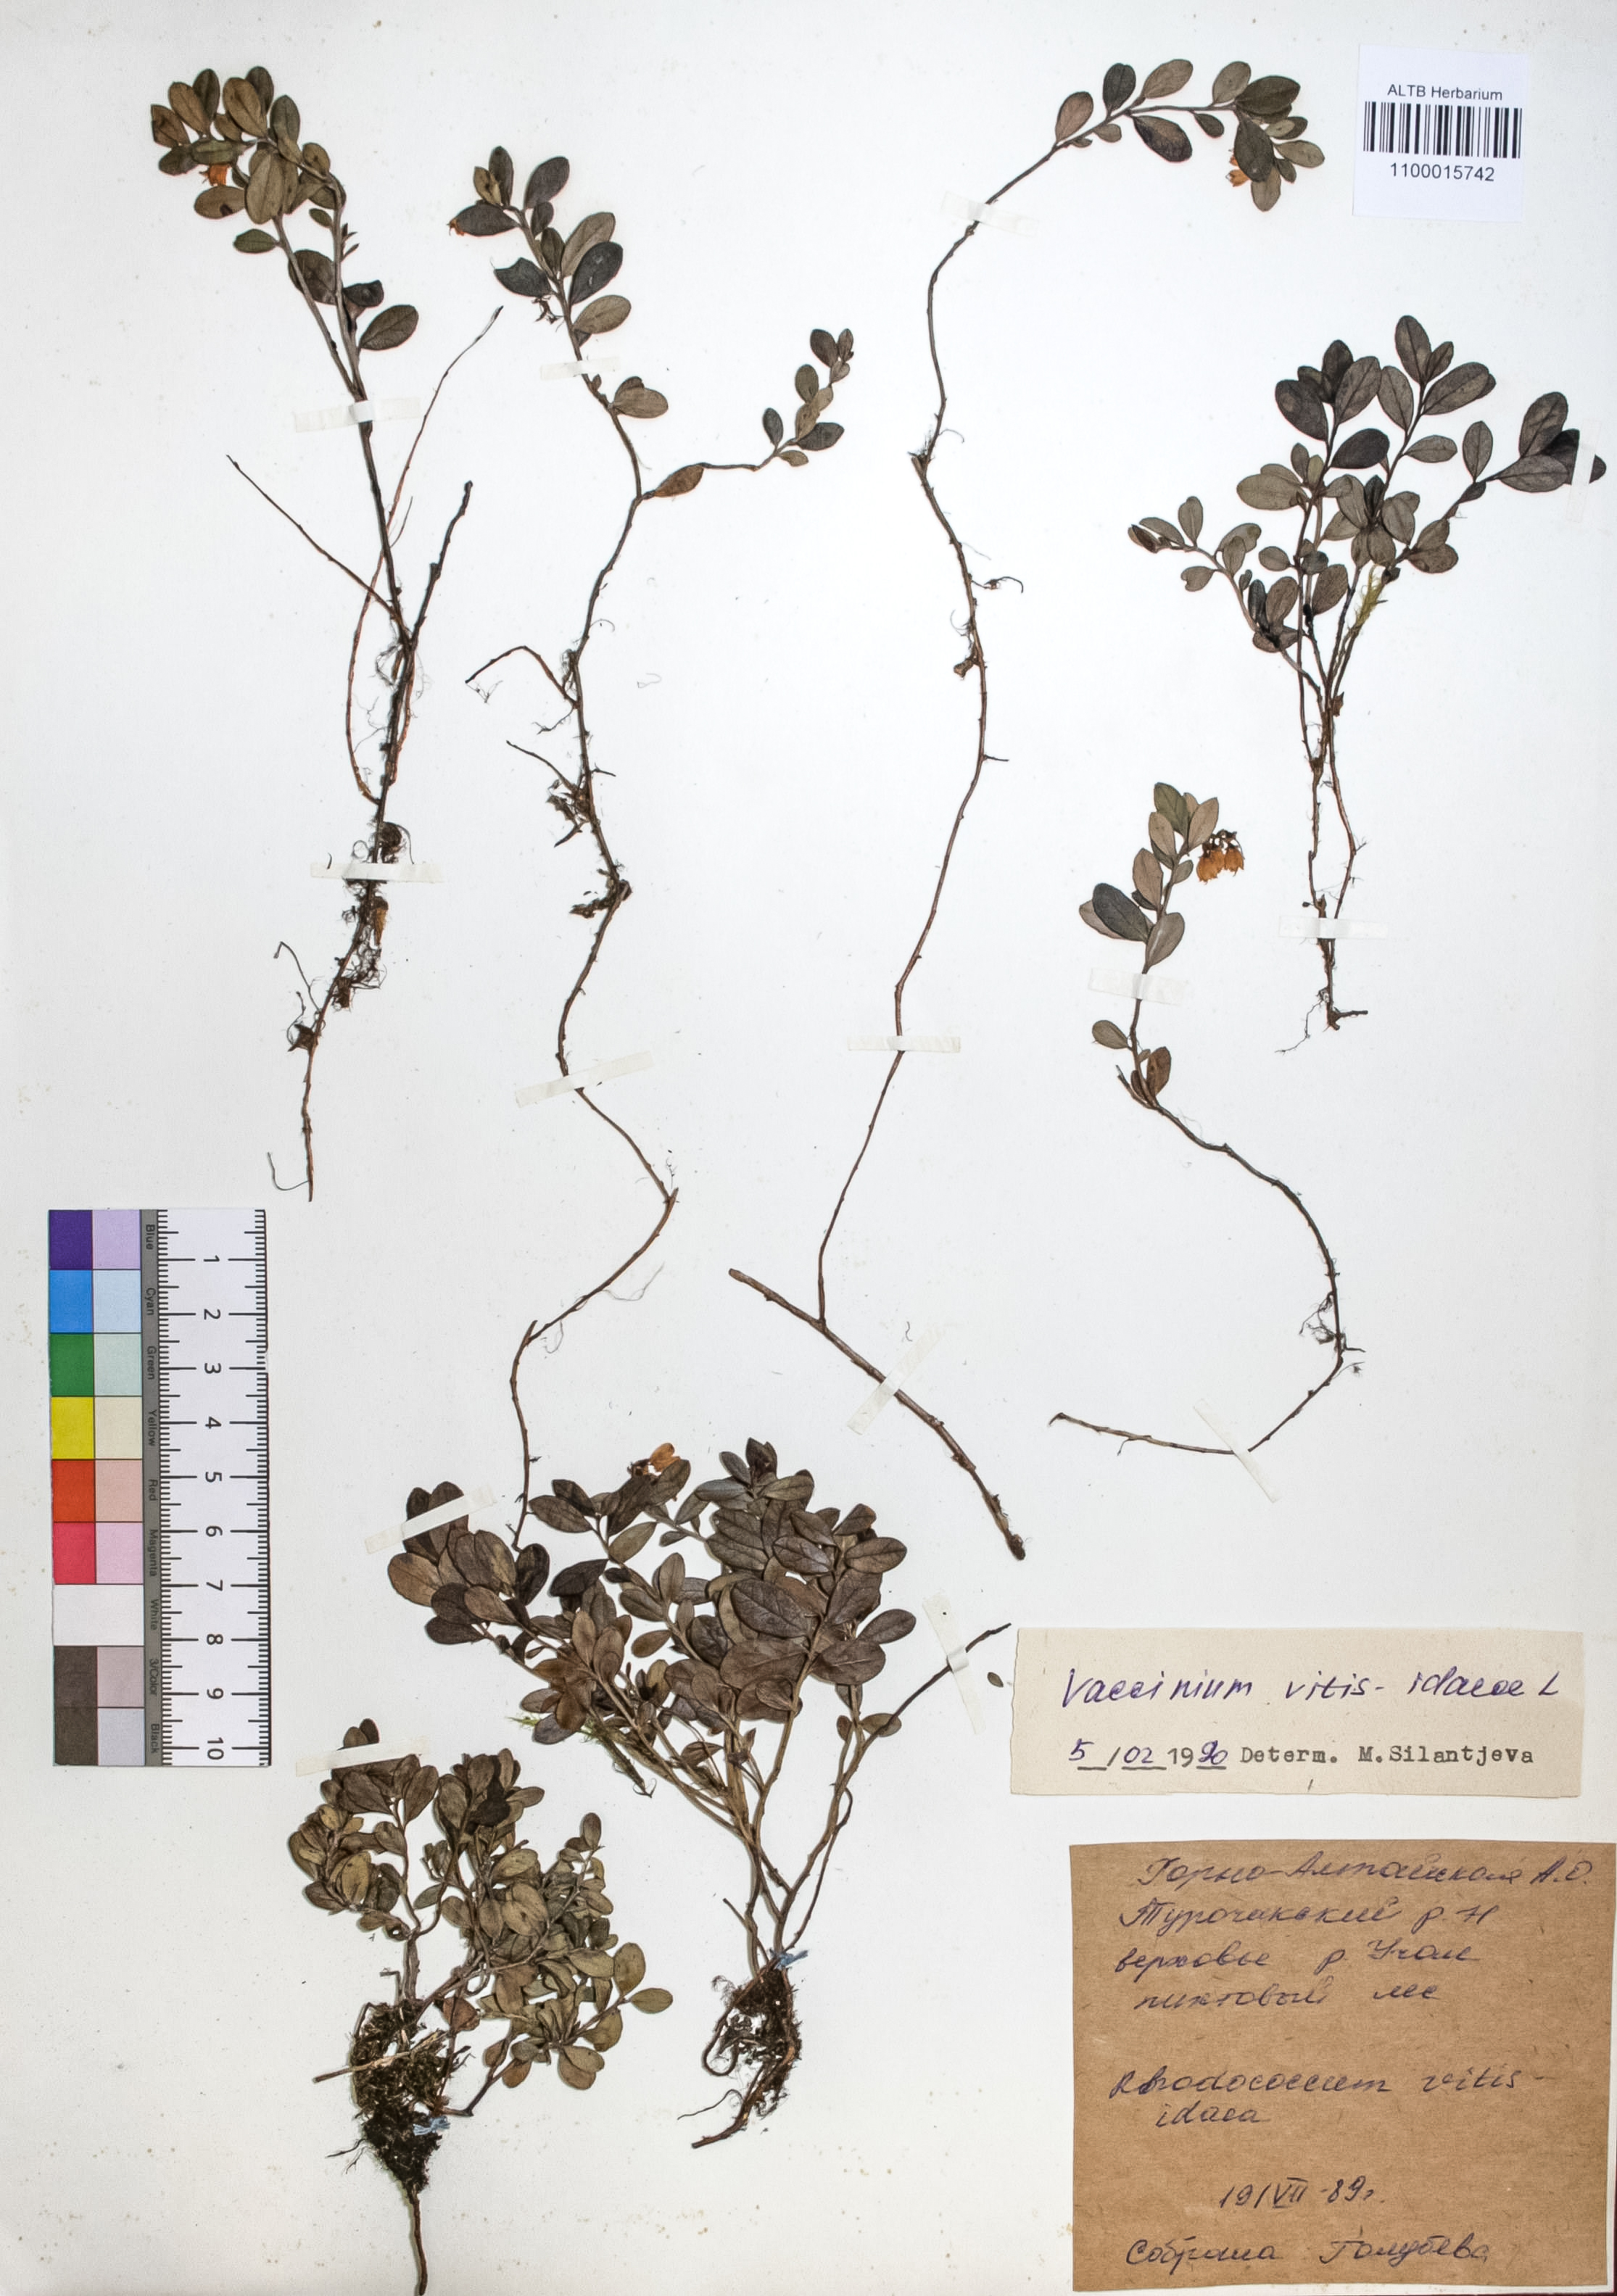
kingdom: Plantae
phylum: Tracheophyta
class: Magnoliopsida
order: Ericales
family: Ericaceae
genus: Vaccinium
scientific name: Vaccinium vitis-idaea
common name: Cowberry
